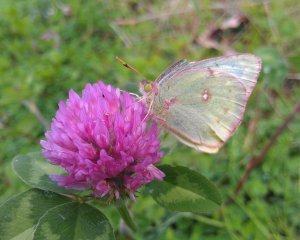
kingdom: Animalia
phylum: Arthropoda
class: Insecta
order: Lepidoptera
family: Pieridae
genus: Colias
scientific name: Colias philodice
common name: Clouded Sulphur
